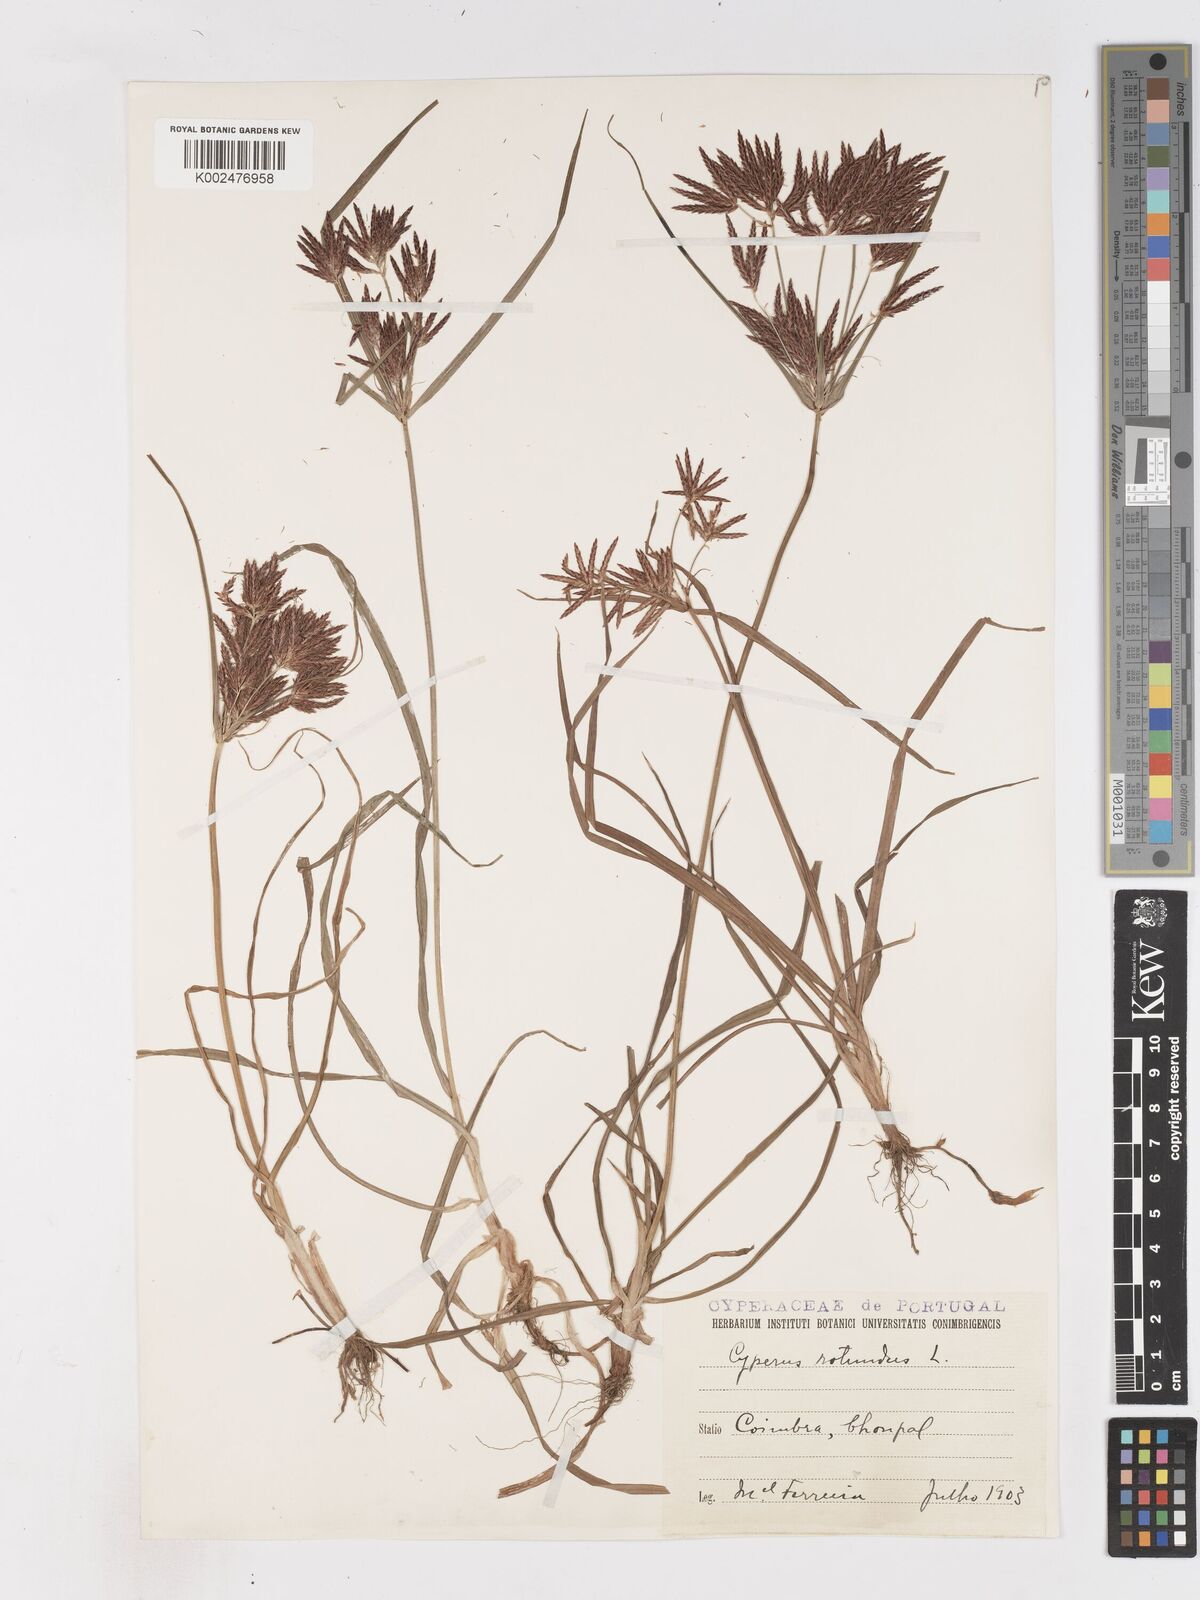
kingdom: Plantae
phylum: Tracheophyta
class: Liliopsida
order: Poales
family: Cyperaceae
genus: Cyperus
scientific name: Cyperus rotundus
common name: Nutgrass
